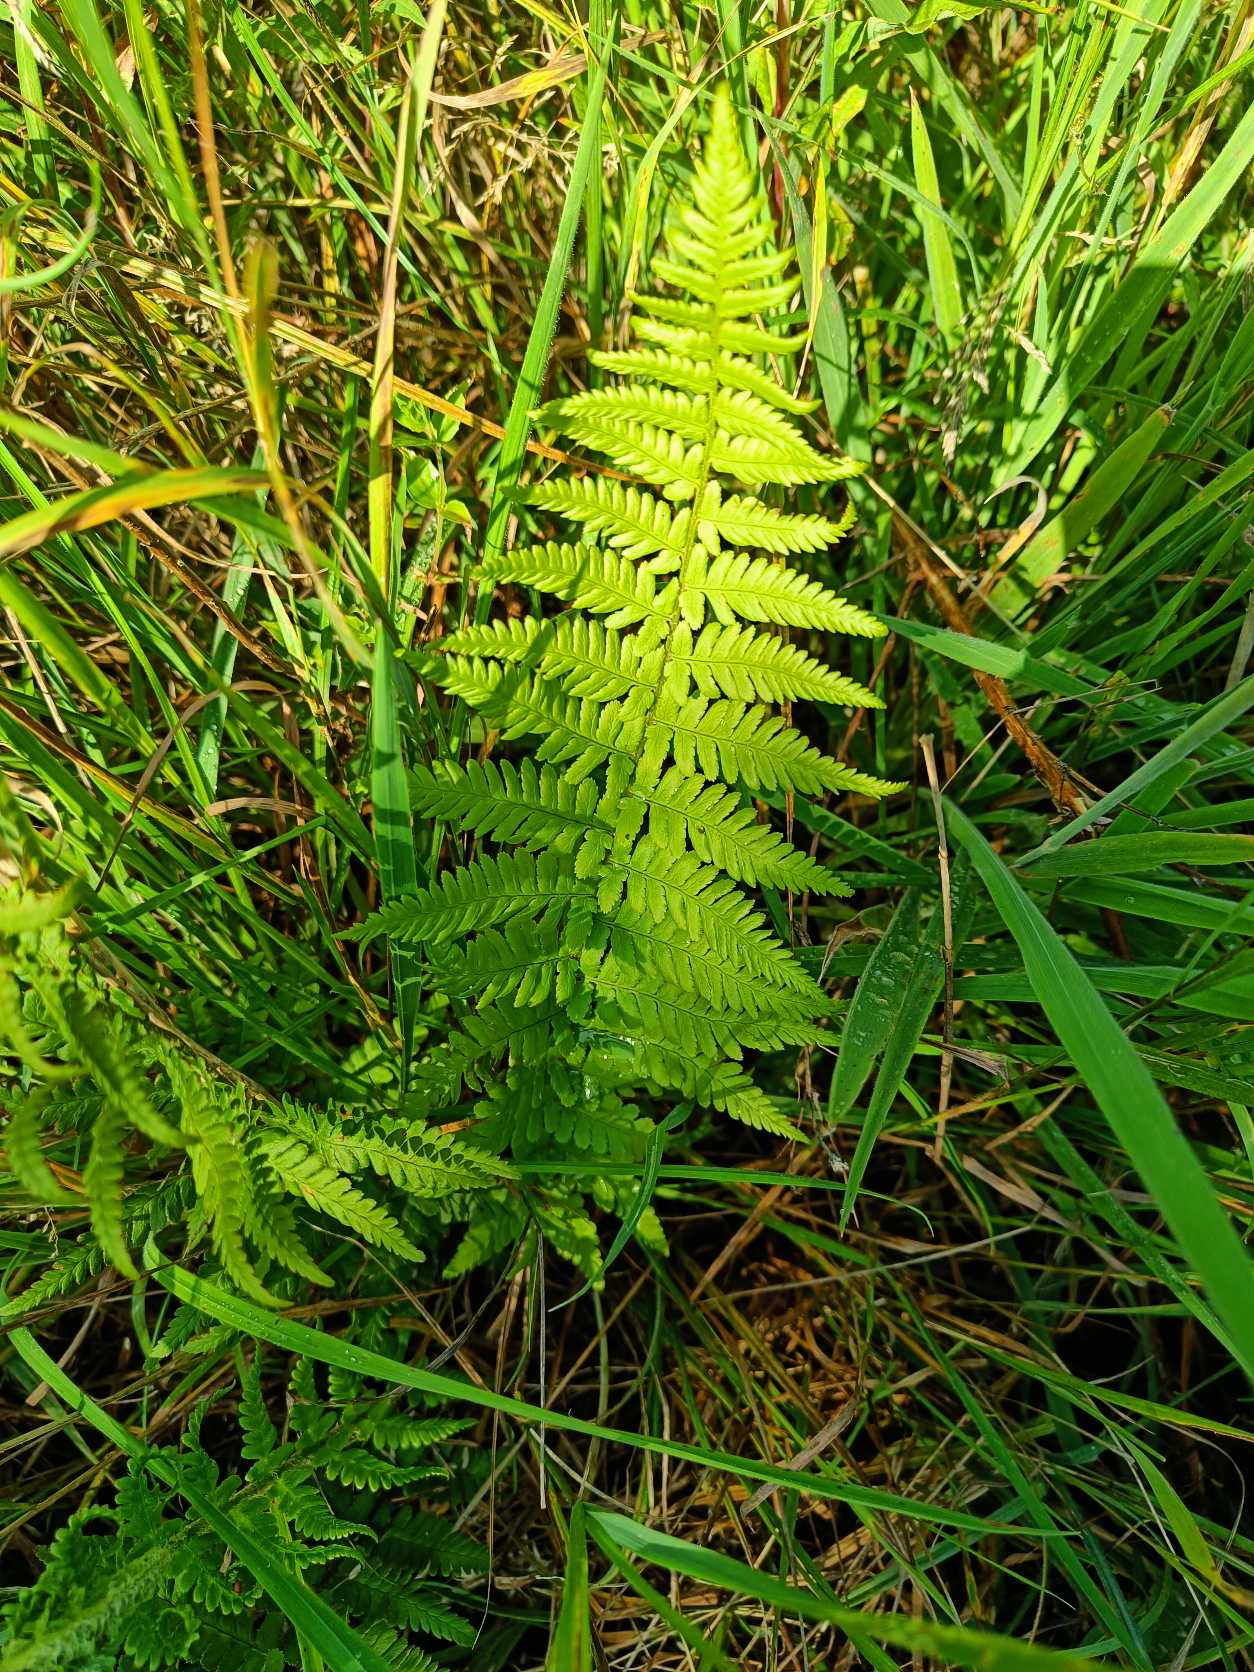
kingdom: Plantae
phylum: Tracheophyta
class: Polypodiopsida
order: Polypodiales
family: Dryopteridaceae
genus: Dryopteris
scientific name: Dryopteris filix-mas
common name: Almindelig mangeløv
